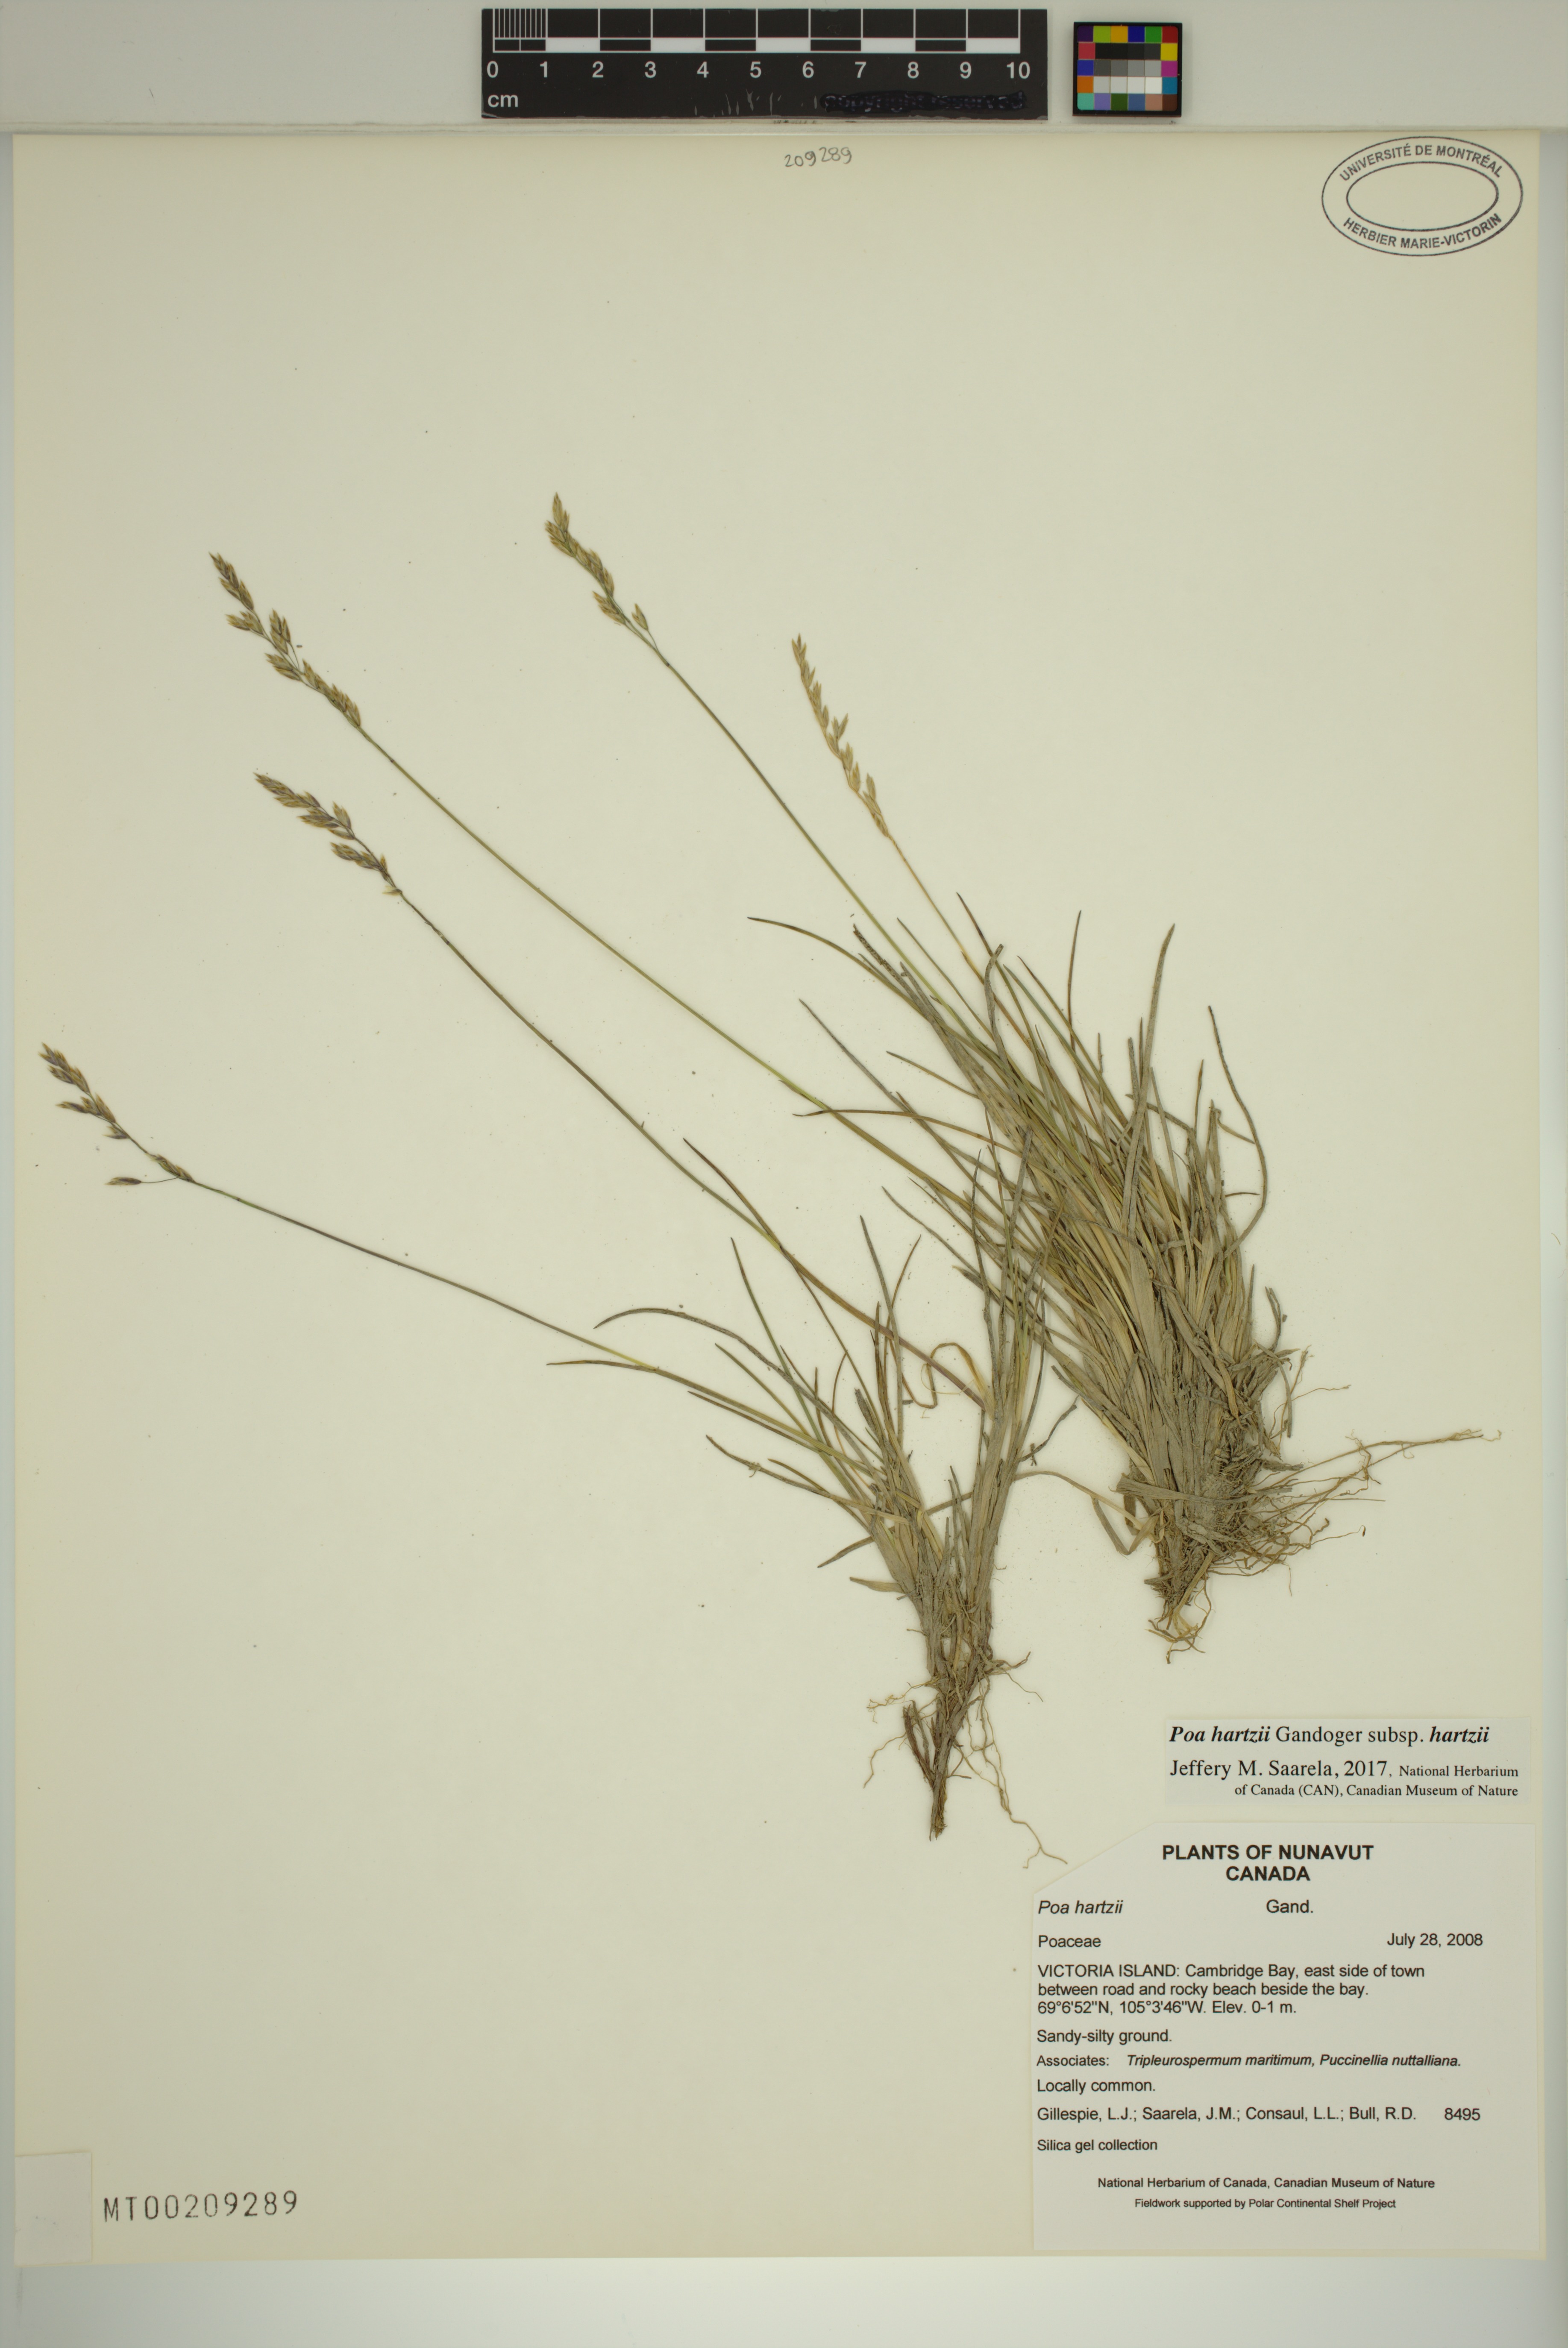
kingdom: Plantae
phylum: Tracheophyta
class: Liliopsida
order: Poales
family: Poaceae
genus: Poa
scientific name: Poa hartzii
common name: Hartz's bluegrass
